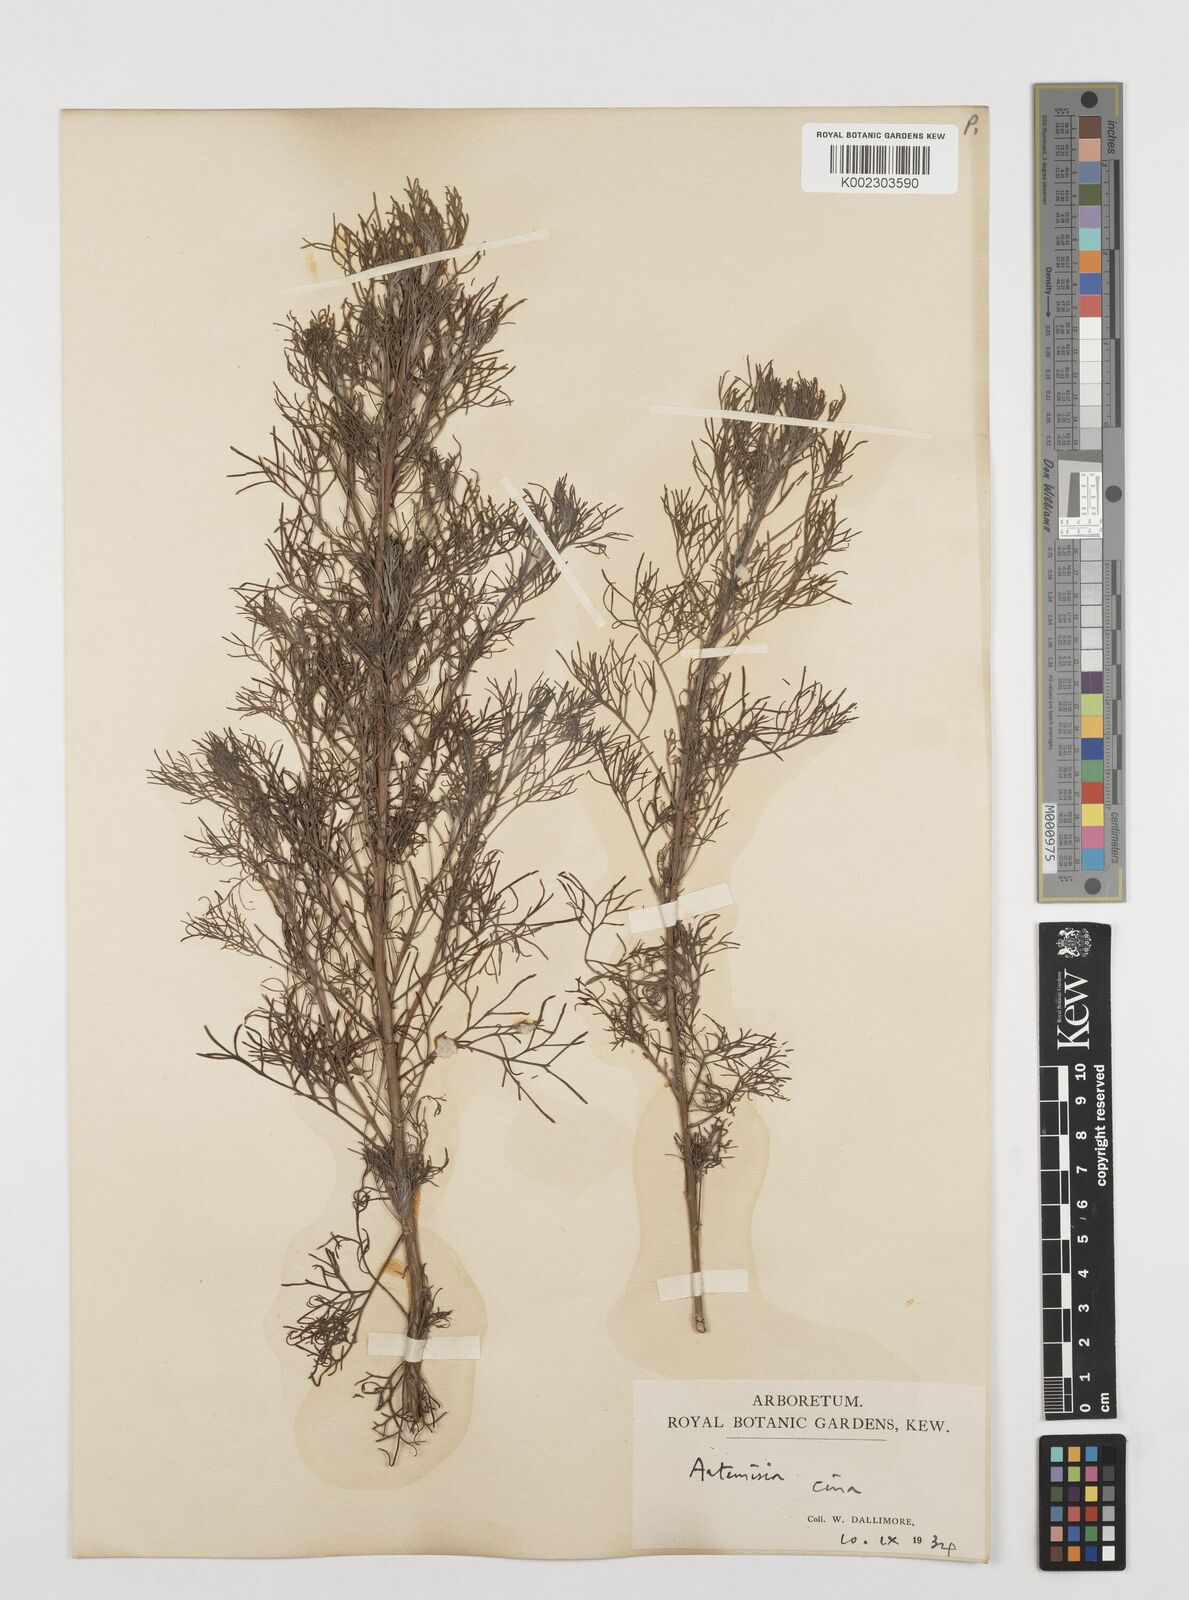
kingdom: Plantae
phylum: Tracheophyta
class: Magnoliopsida
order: Asterales
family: Asteraceae
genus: Artemisia
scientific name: Artemisia cina
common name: Levant wormseed
